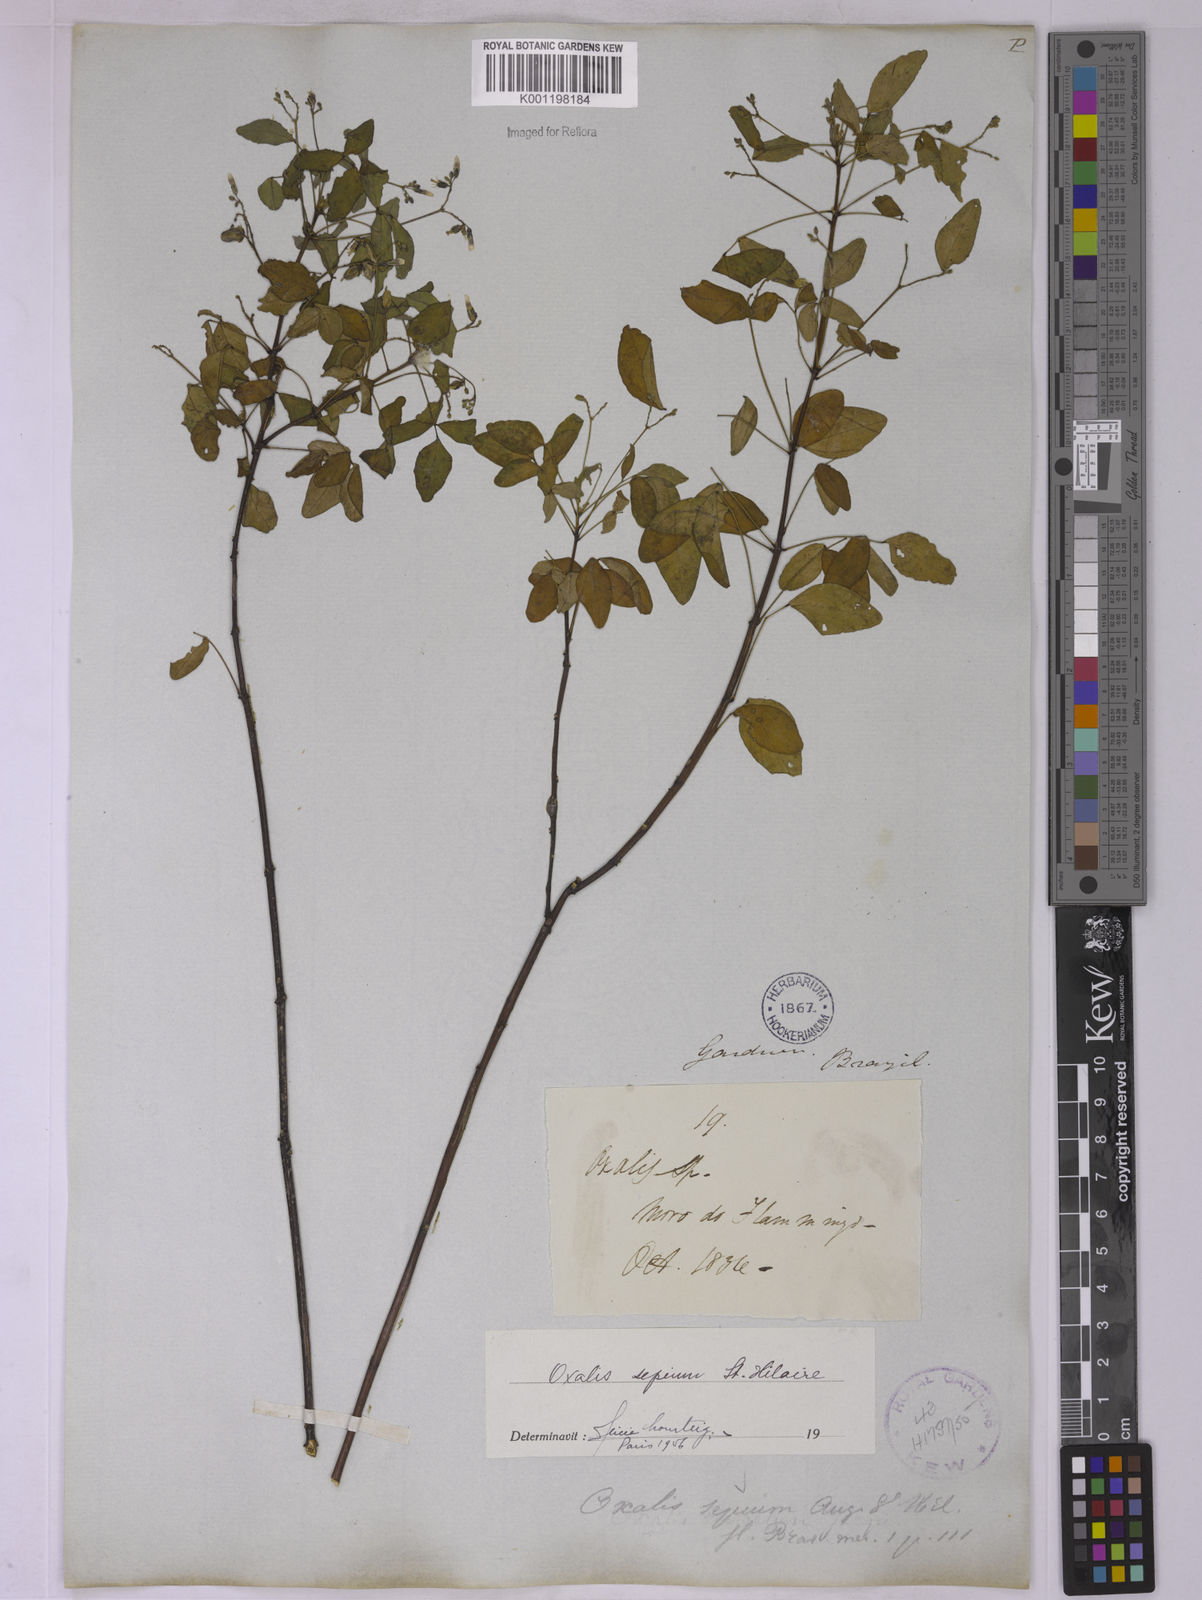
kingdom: Plantae
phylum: Tracheophyta
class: Magnoliopsida
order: Oxalidales
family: Oxalidaceae
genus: Oxalis
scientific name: Oxalis sepium
